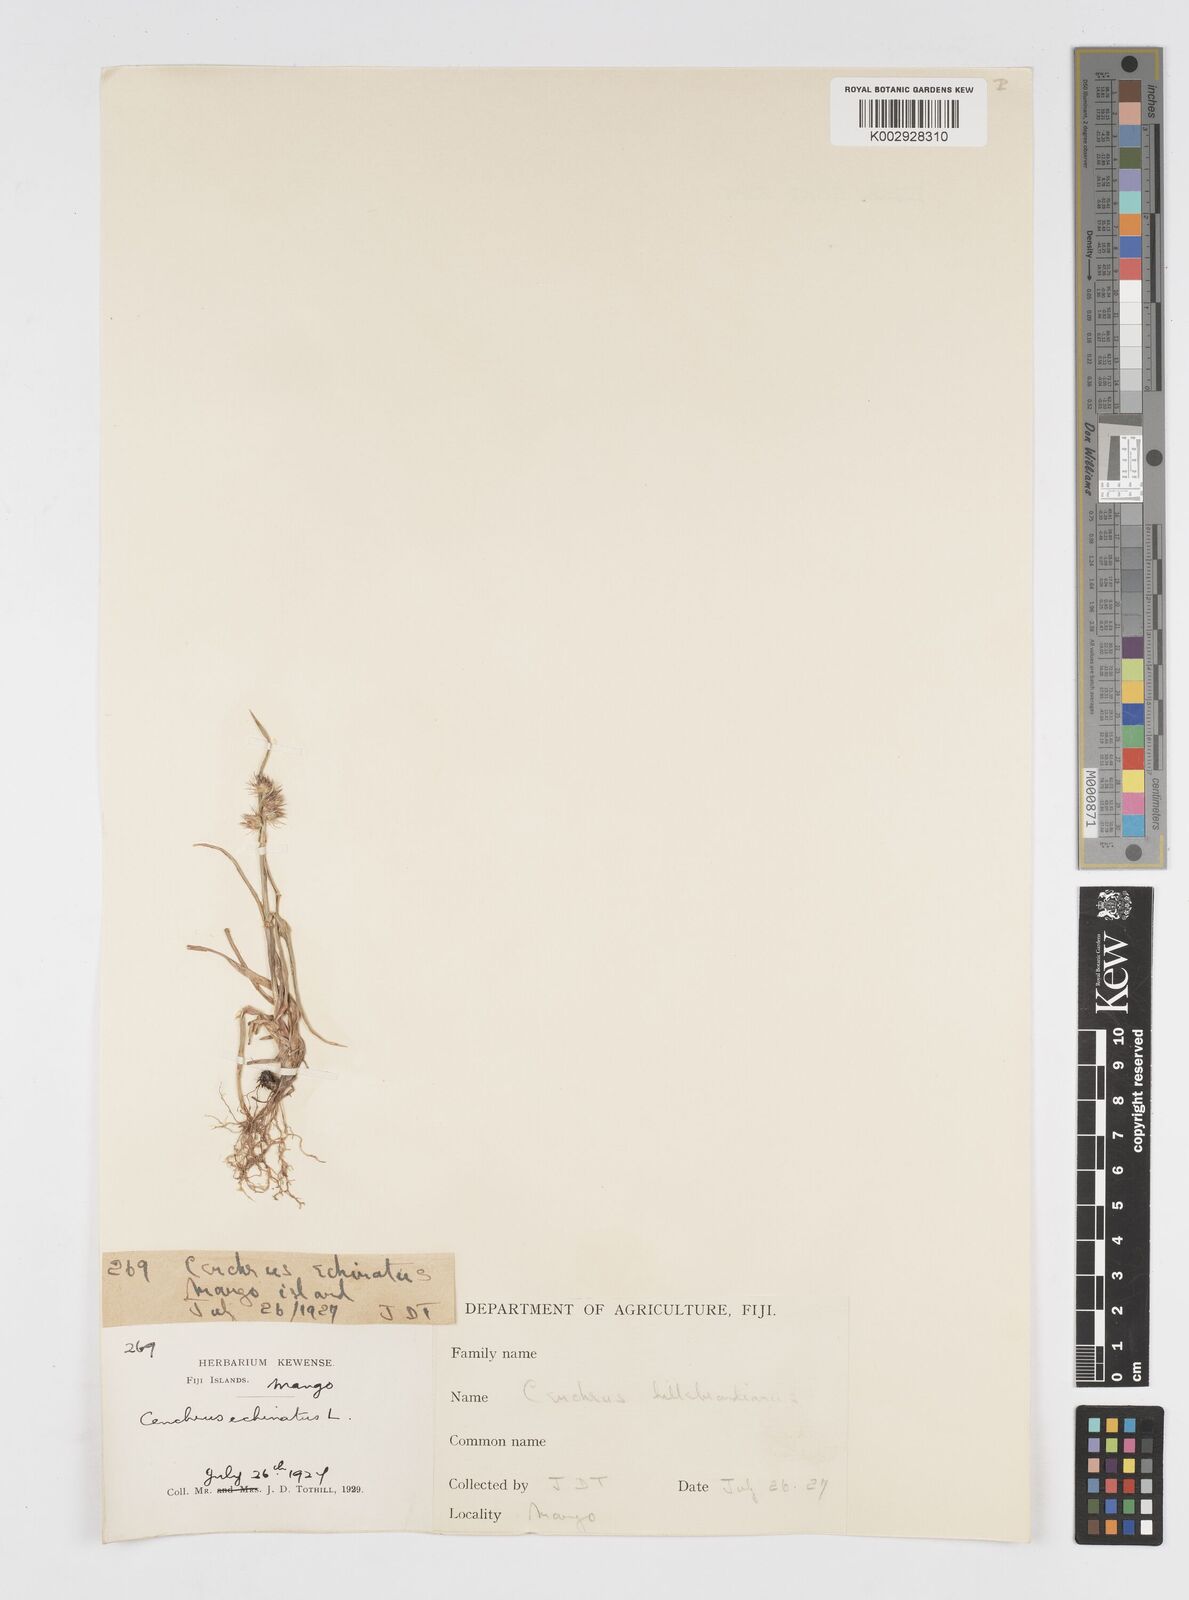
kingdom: Plantae
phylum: Tracheophyta
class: Liliopsida
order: Poales
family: Poaceae
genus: Cenchrus
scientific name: Cenchrus echinatus
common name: Southern sandbur
